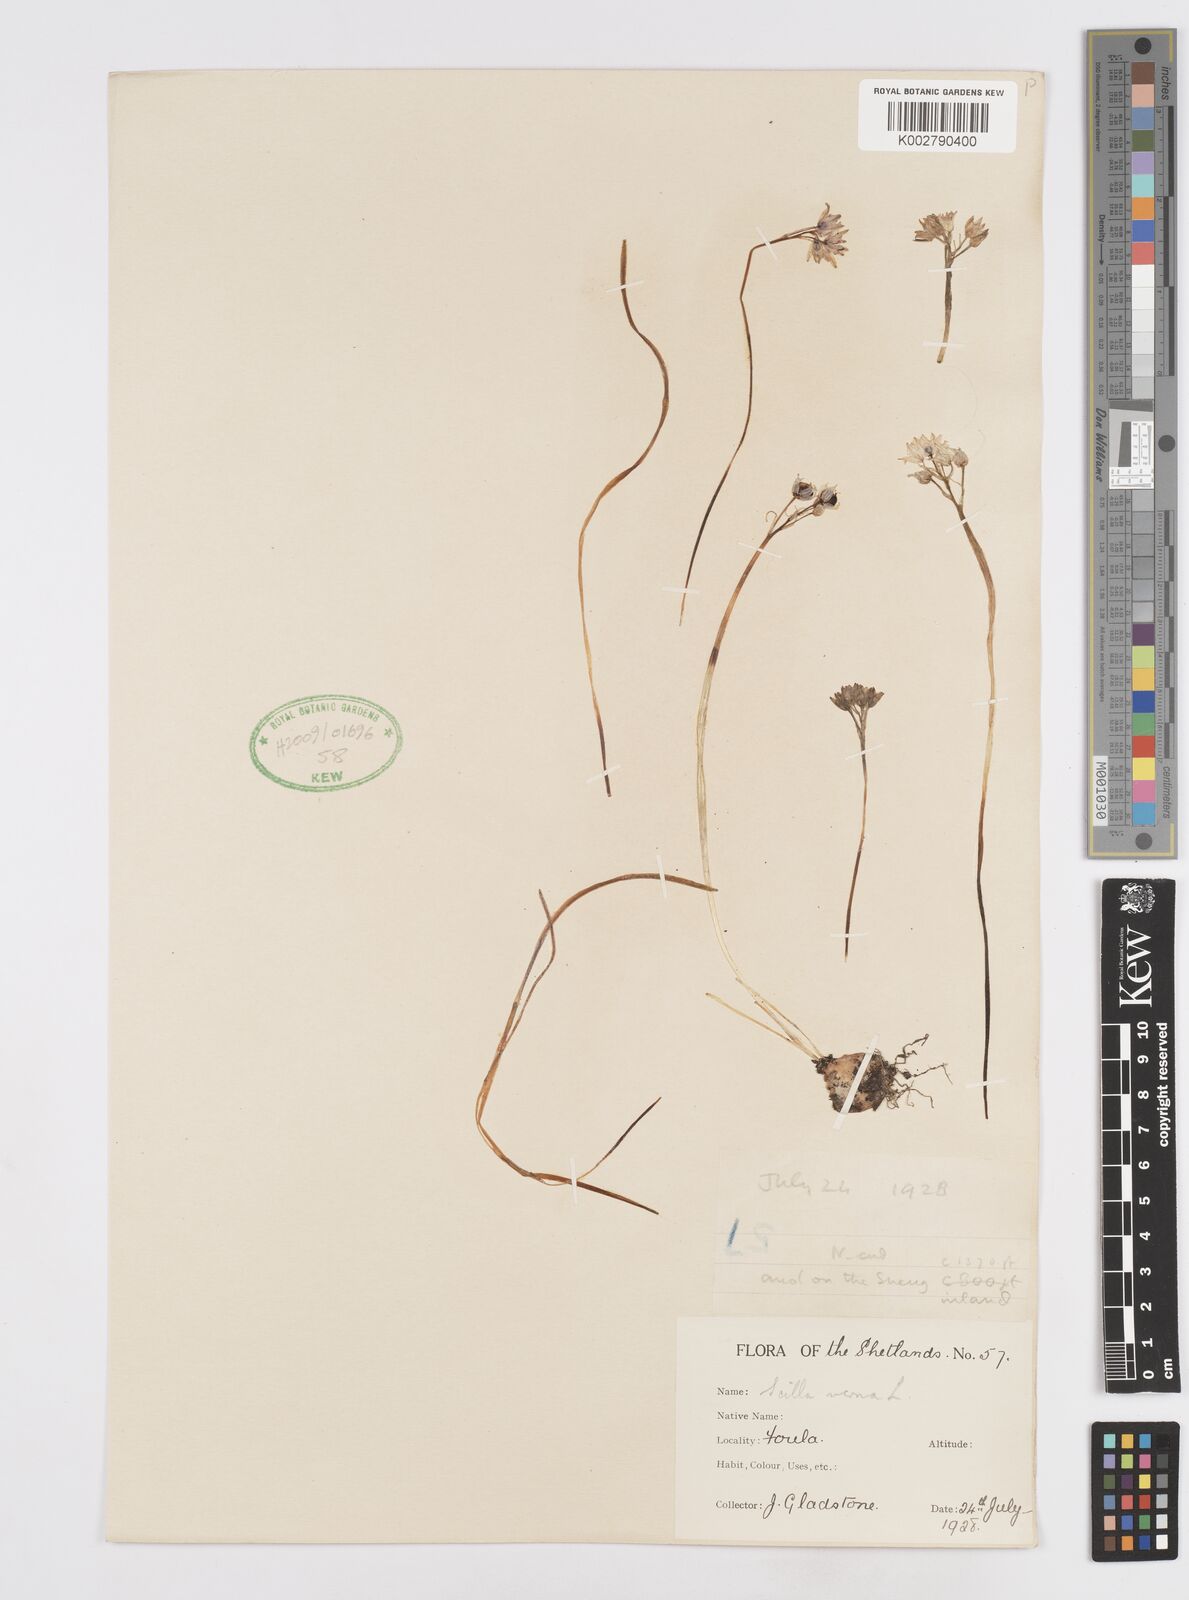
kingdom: Plantae
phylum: Tracheophyta
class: Liliopsida
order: Asparagales
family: Asparagaceae
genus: Scilla
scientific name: Scilla verna
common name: Spring squill
